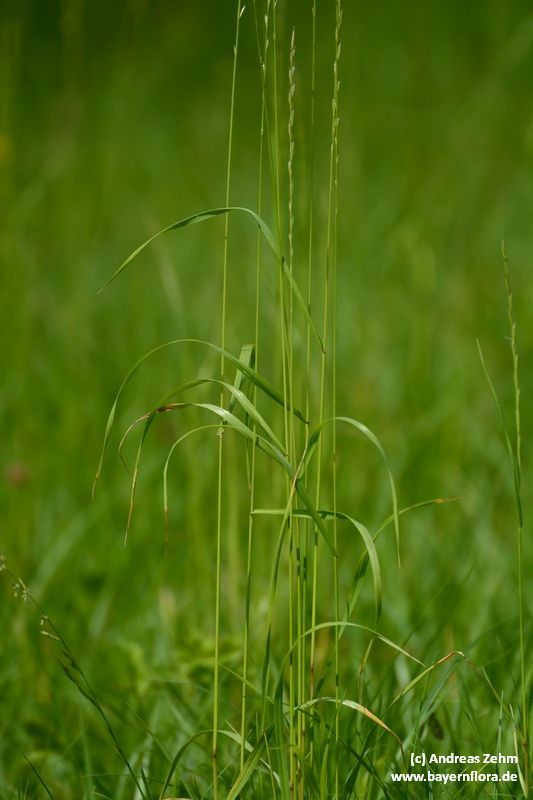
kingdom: Plantae
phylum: Tracheophyta
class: Liliopsida
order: Poales
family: Poaceae
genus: Lolium
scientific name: Lolium multiflorum
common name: Annual ryegrass
